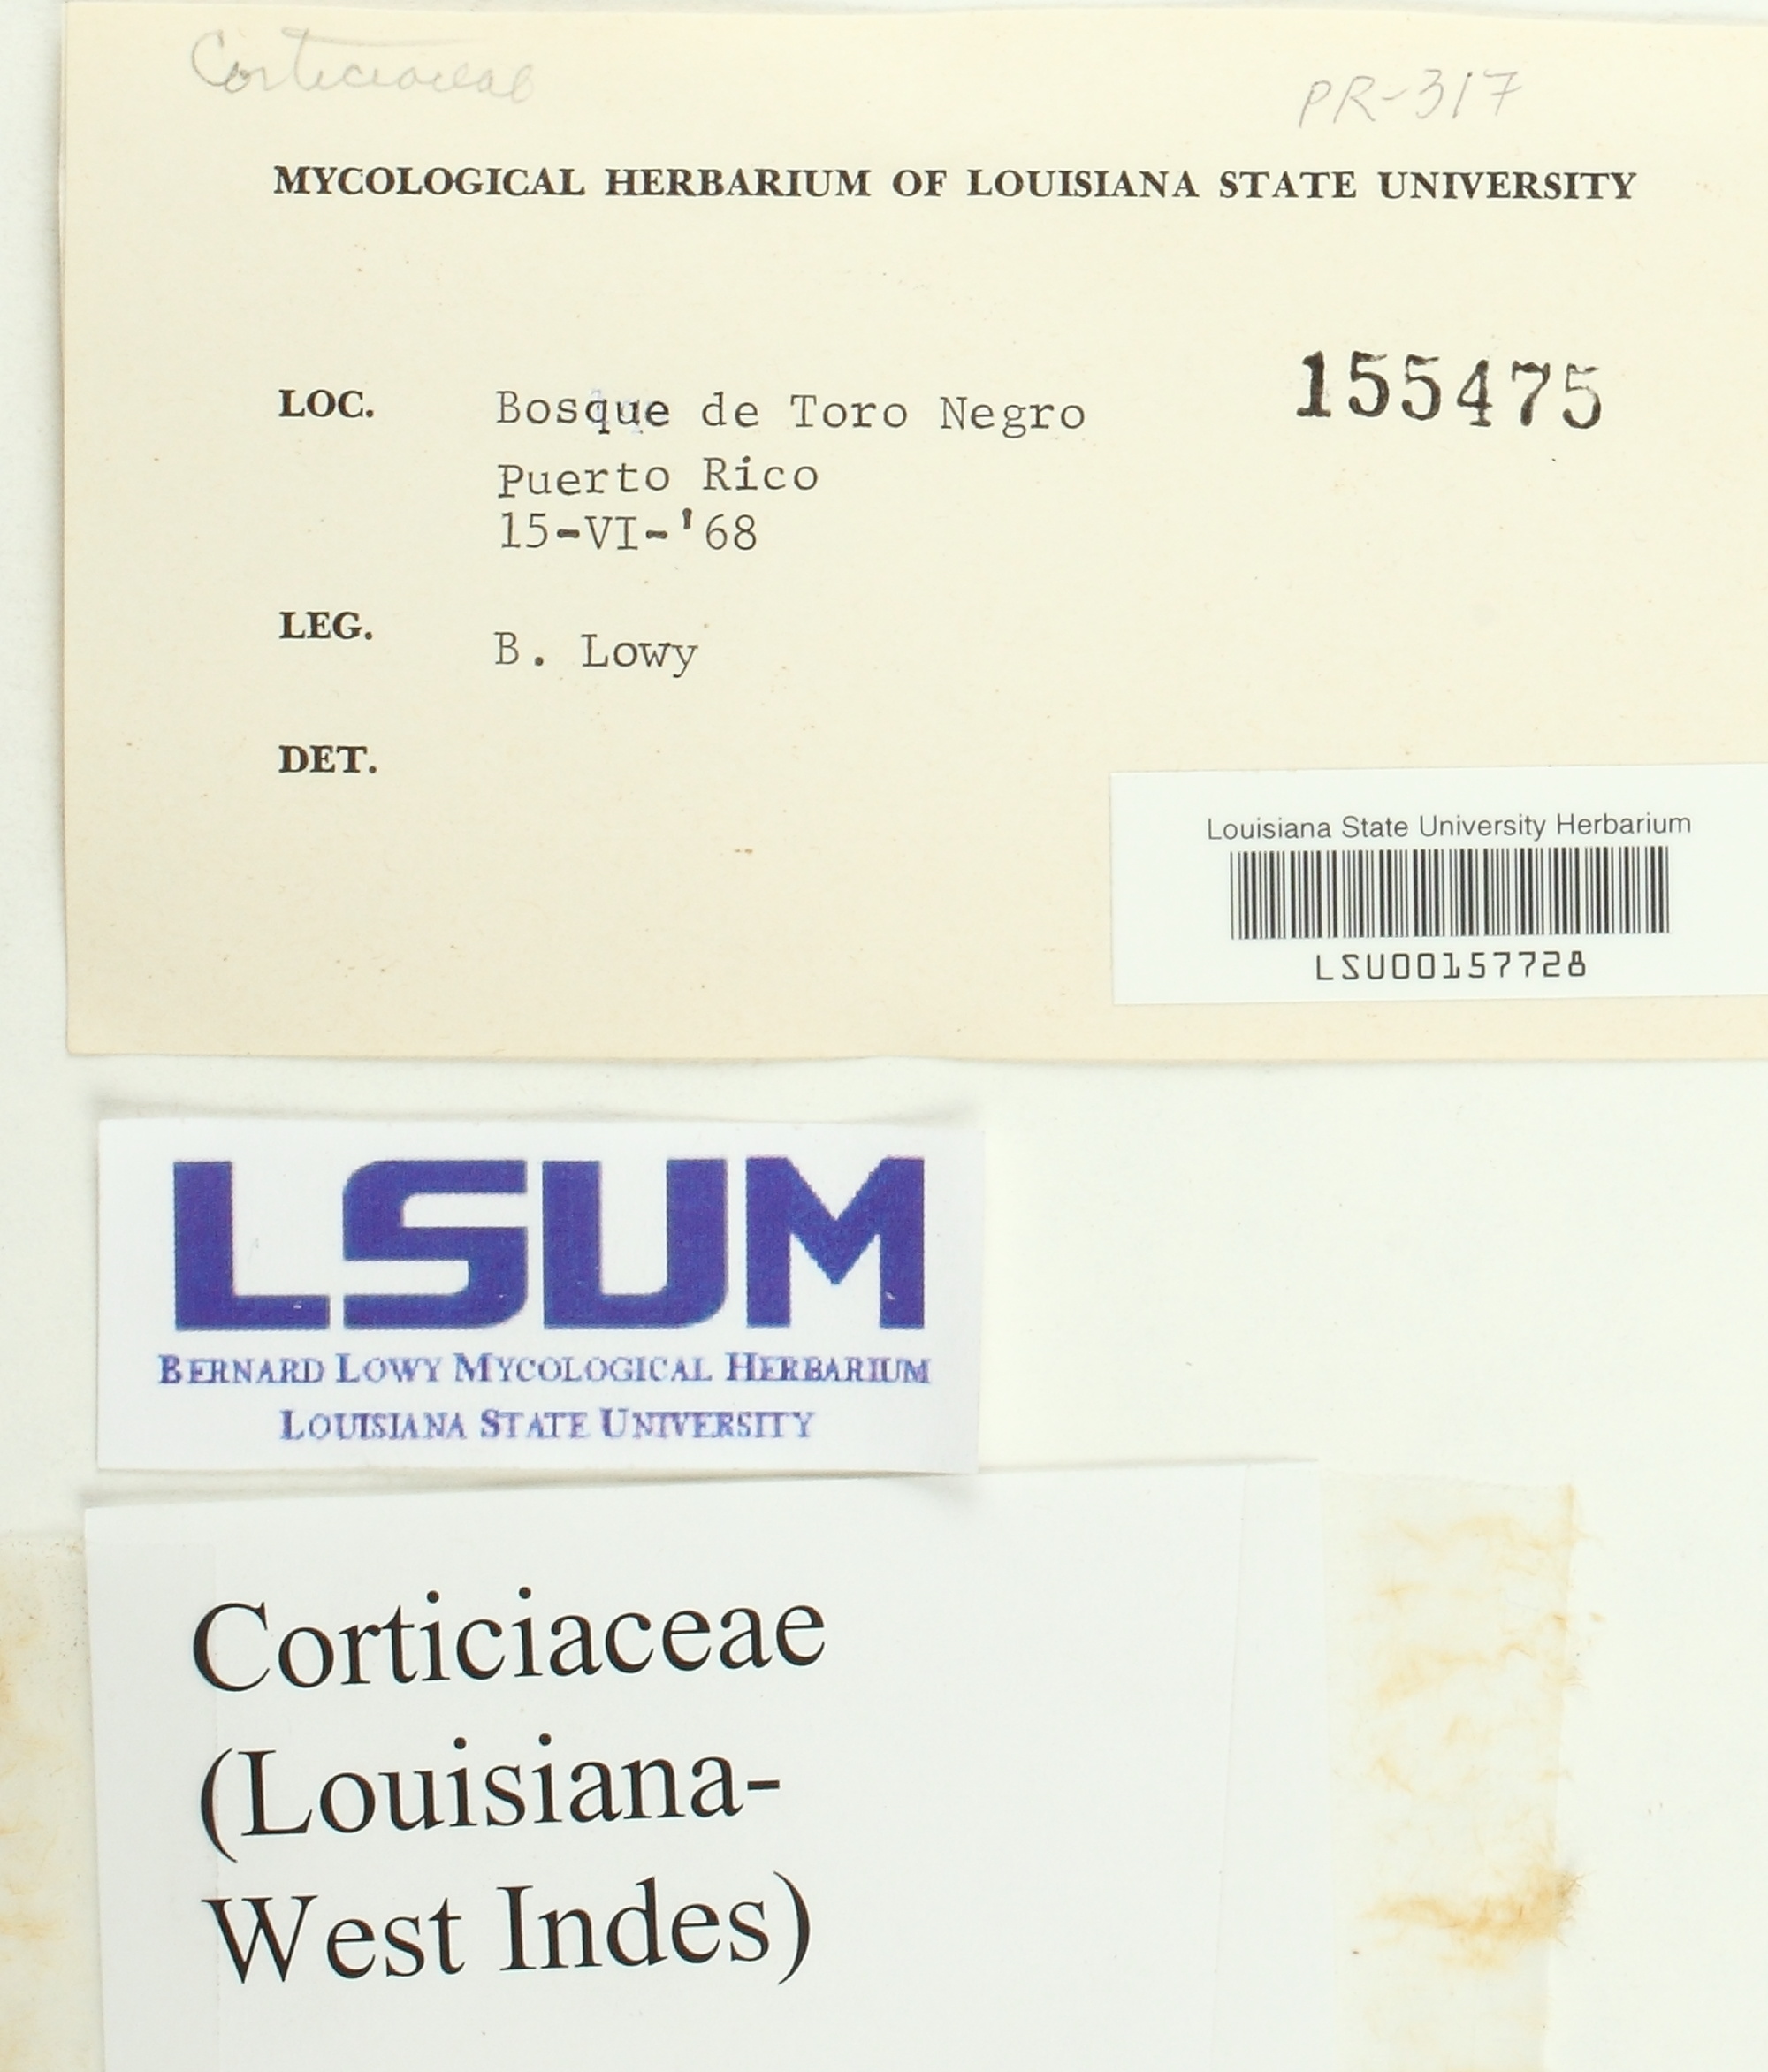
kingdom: Fungi
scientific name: Fungi
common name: Fungi
